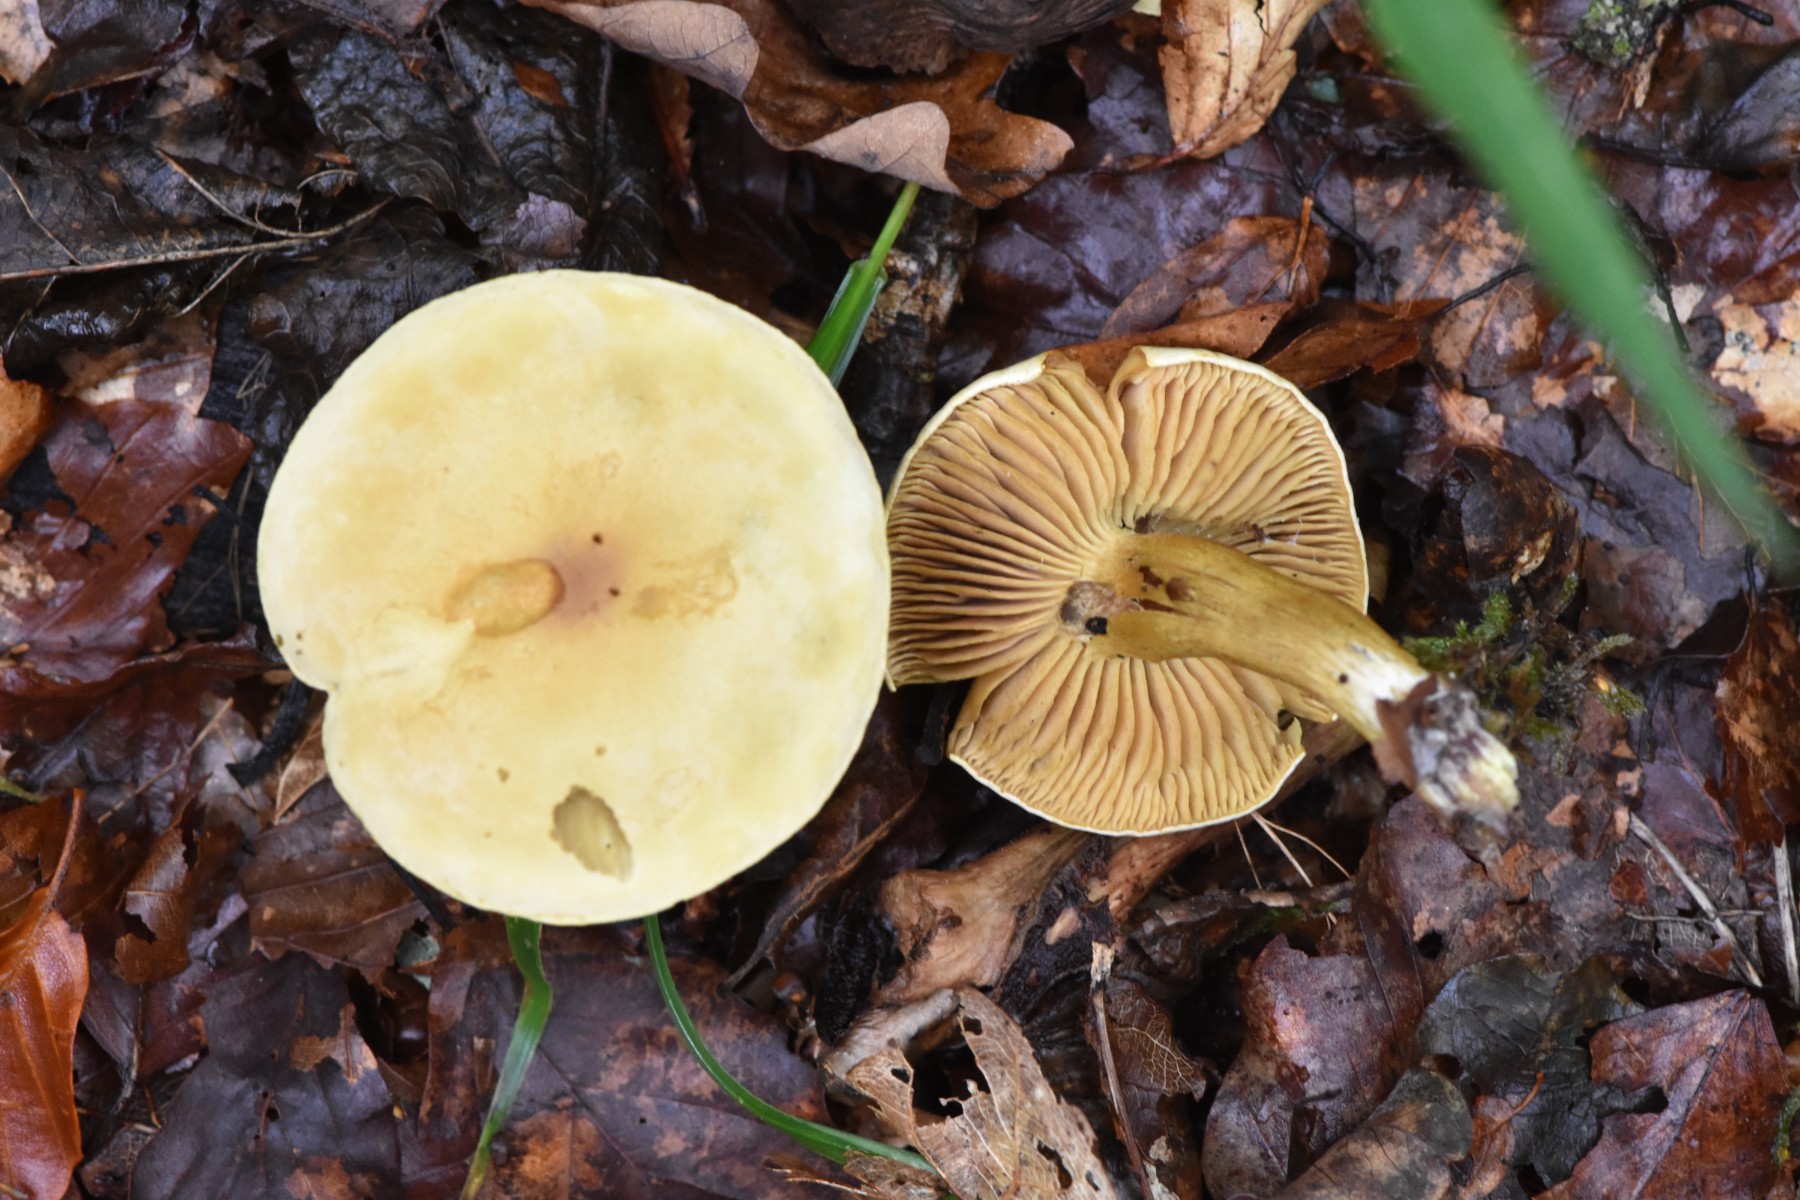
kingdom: Fungi
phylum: Basidiomycota
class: Agaricomycetes
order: Agaricales
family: Tricholomataceae
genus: Tricholoma
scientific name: Tricholoma sulphureum
